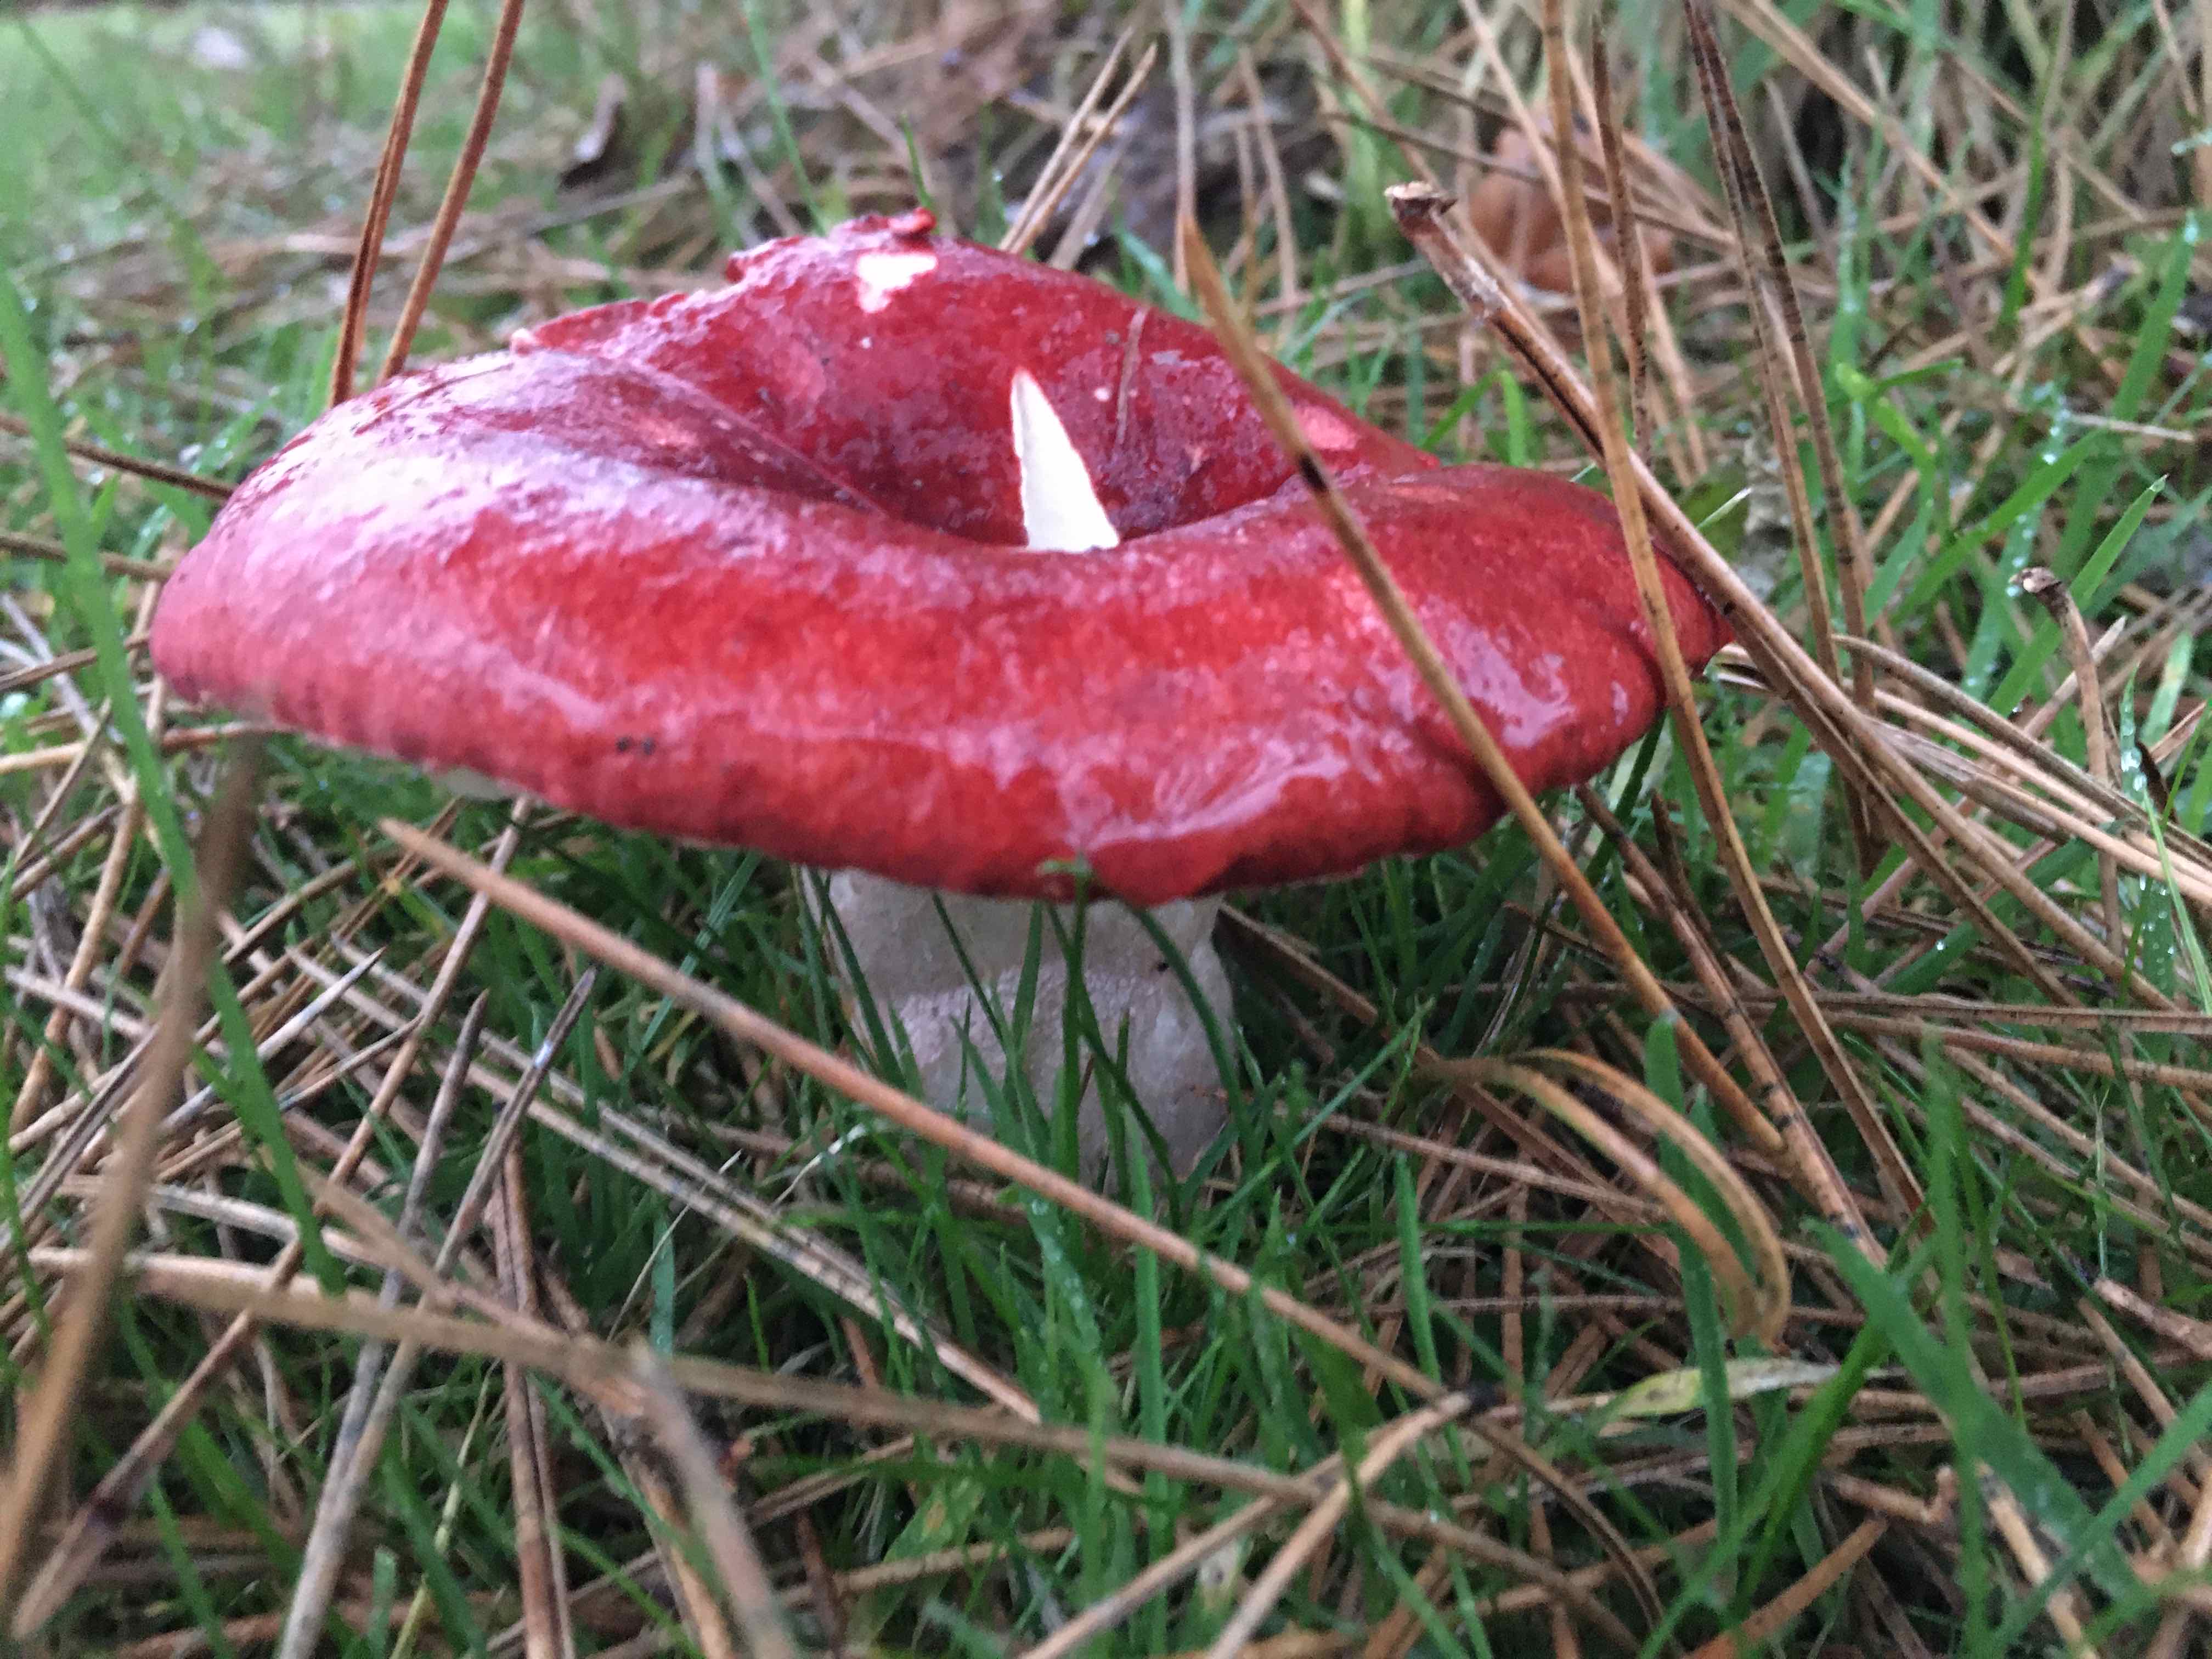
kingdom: Fungi
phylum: Basidiomycota
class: Agaricomycetes
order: Russulales
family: Russulaceae
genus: Russula
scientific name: Russula
